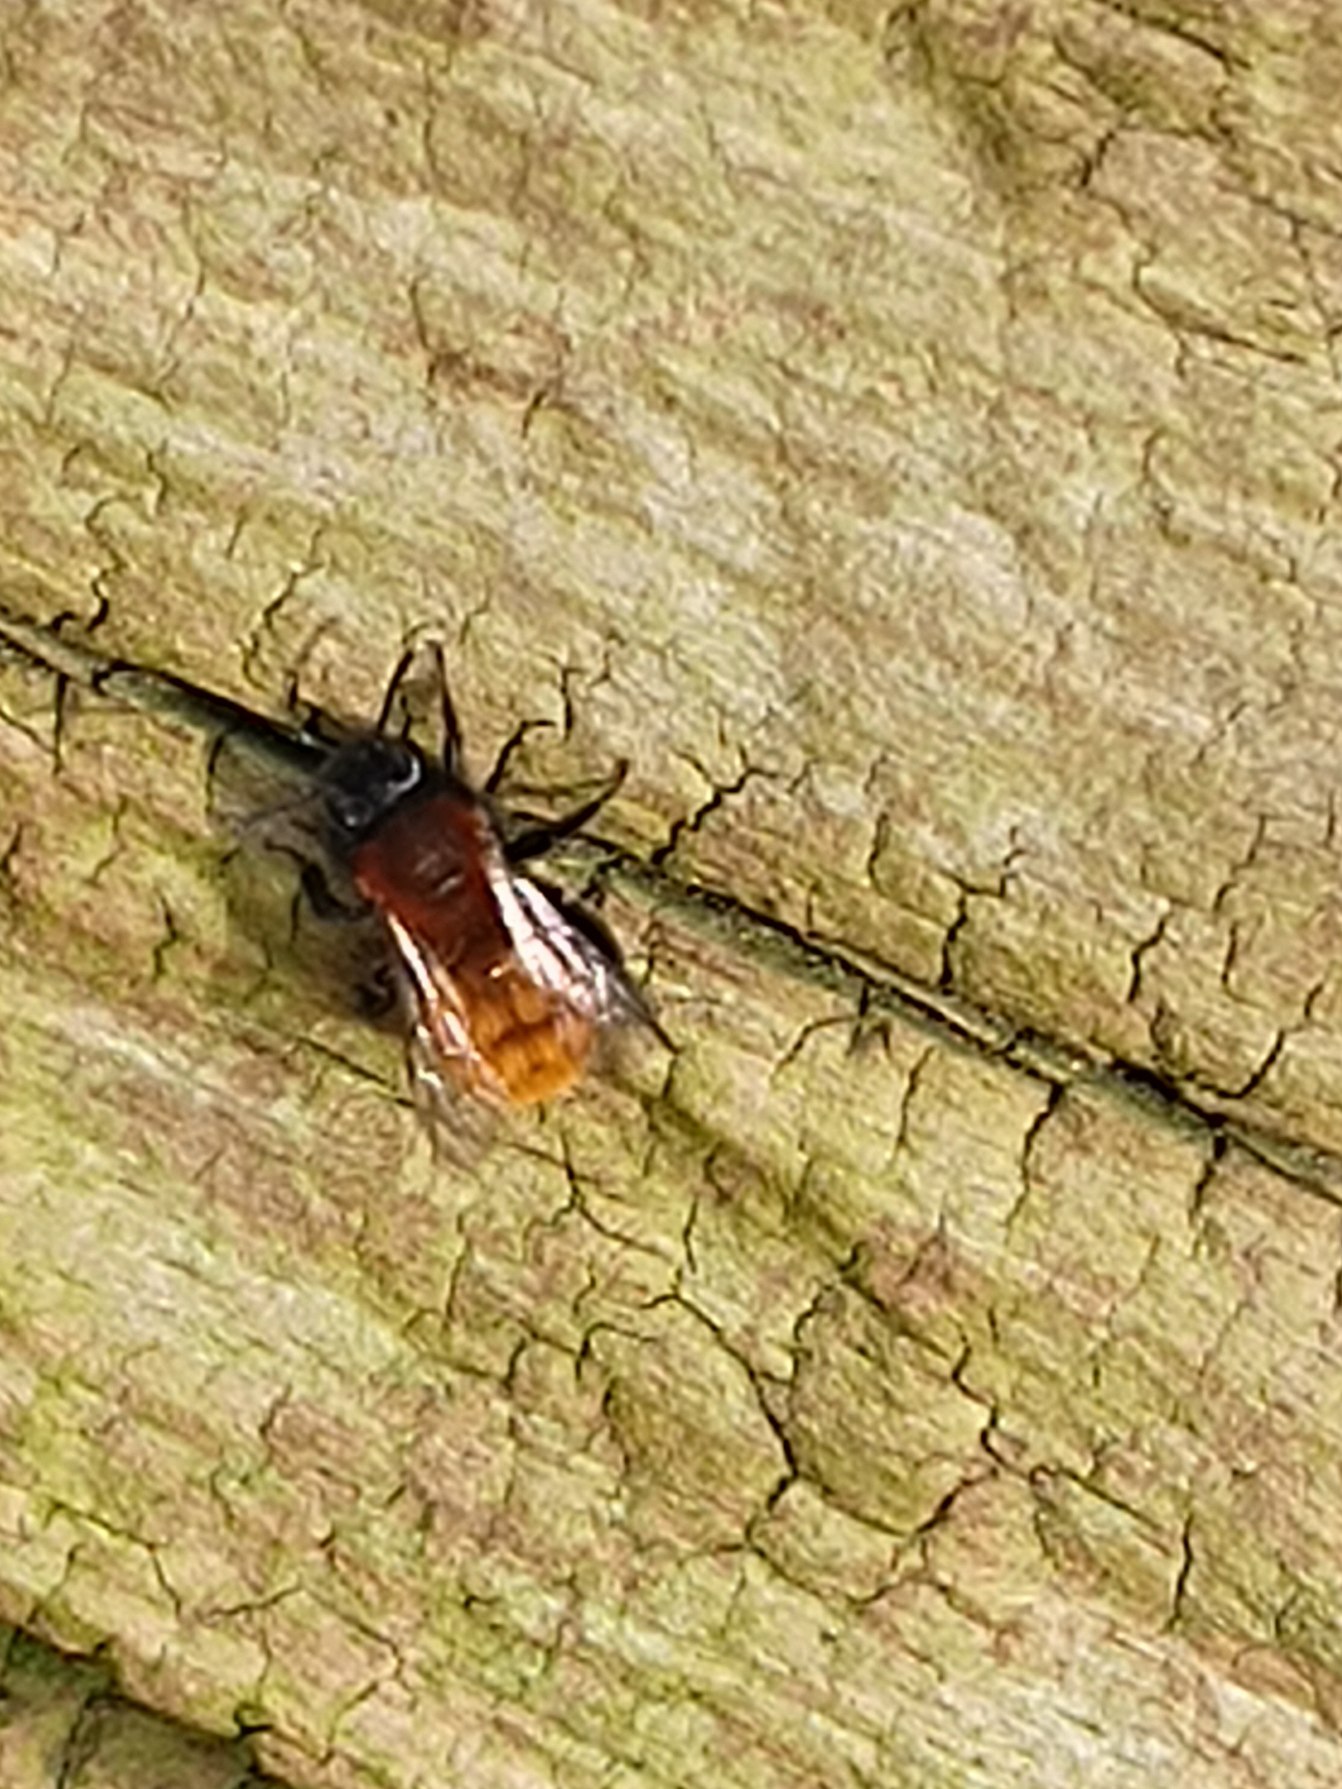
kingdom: Animalia
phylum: Arthropoda
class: Insecta
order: Hymenoptera
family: Andrenidae
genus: Andrena
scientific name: Andrena fulva
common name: Rødpelset jordbi
